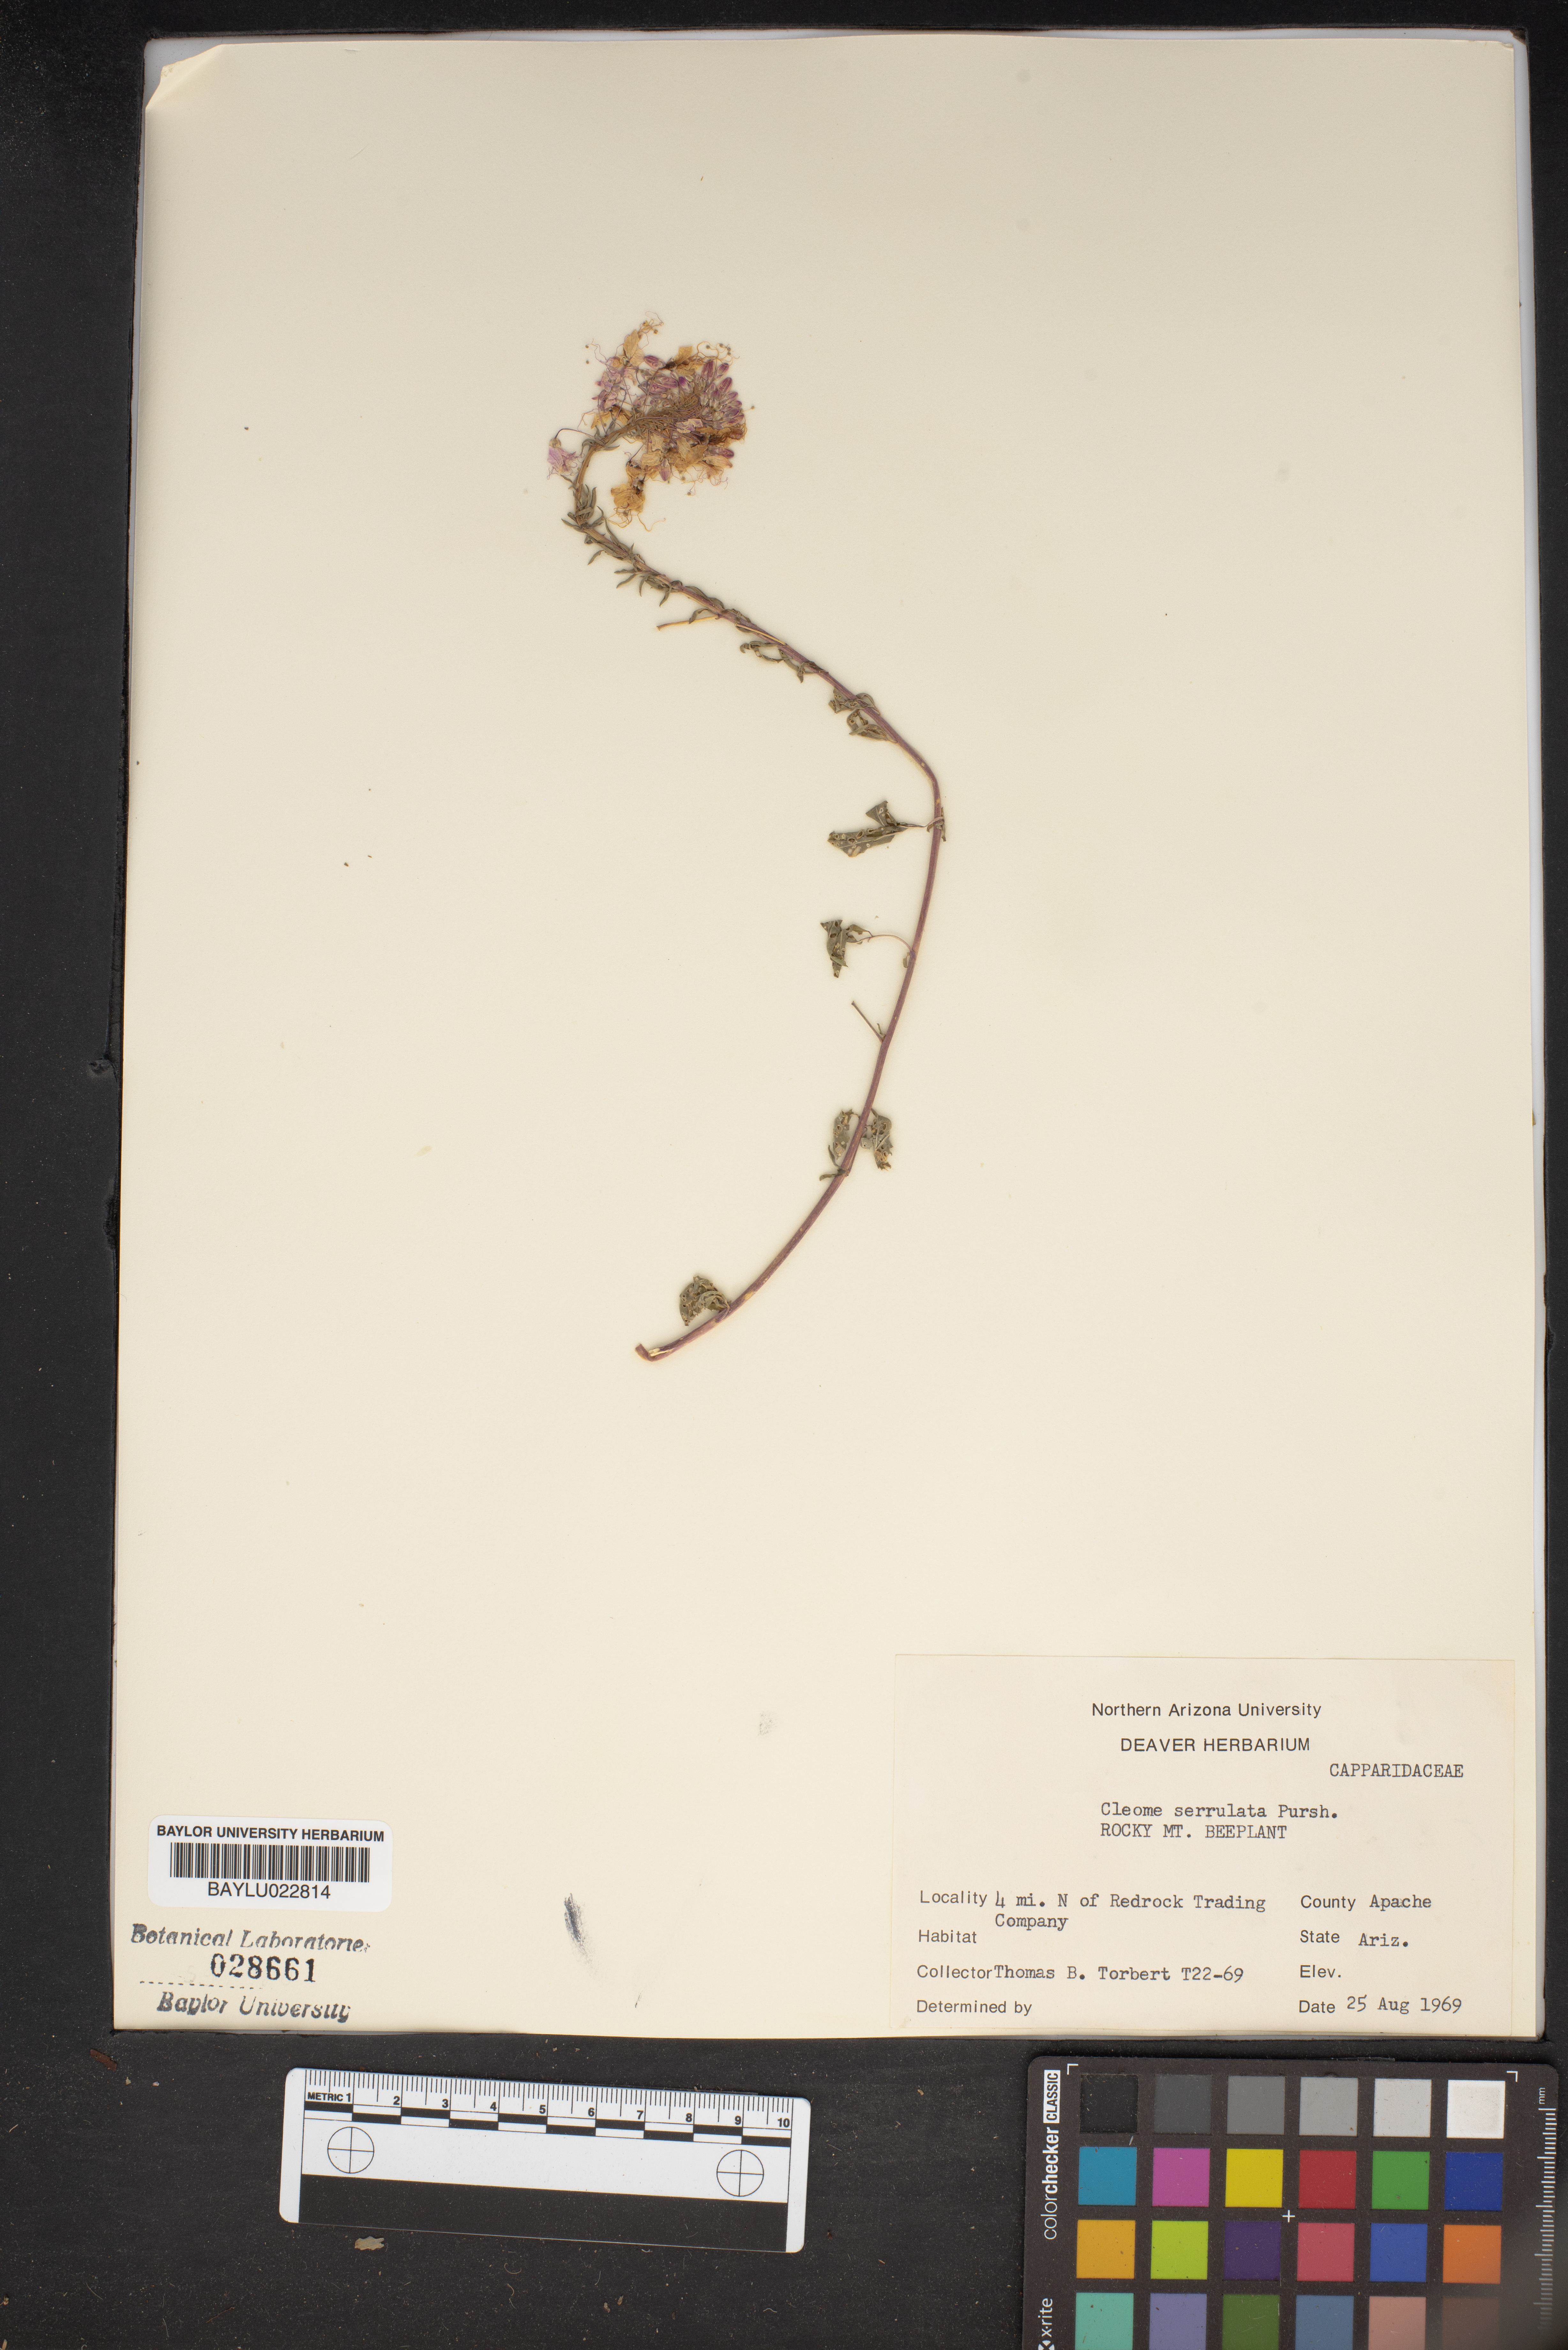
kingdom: Plantae
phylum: Tracheophyta
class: Magnoliopsida
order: Brassicales
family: Cleomaceae
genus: Cleomella
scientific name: Cleomella serrulata
